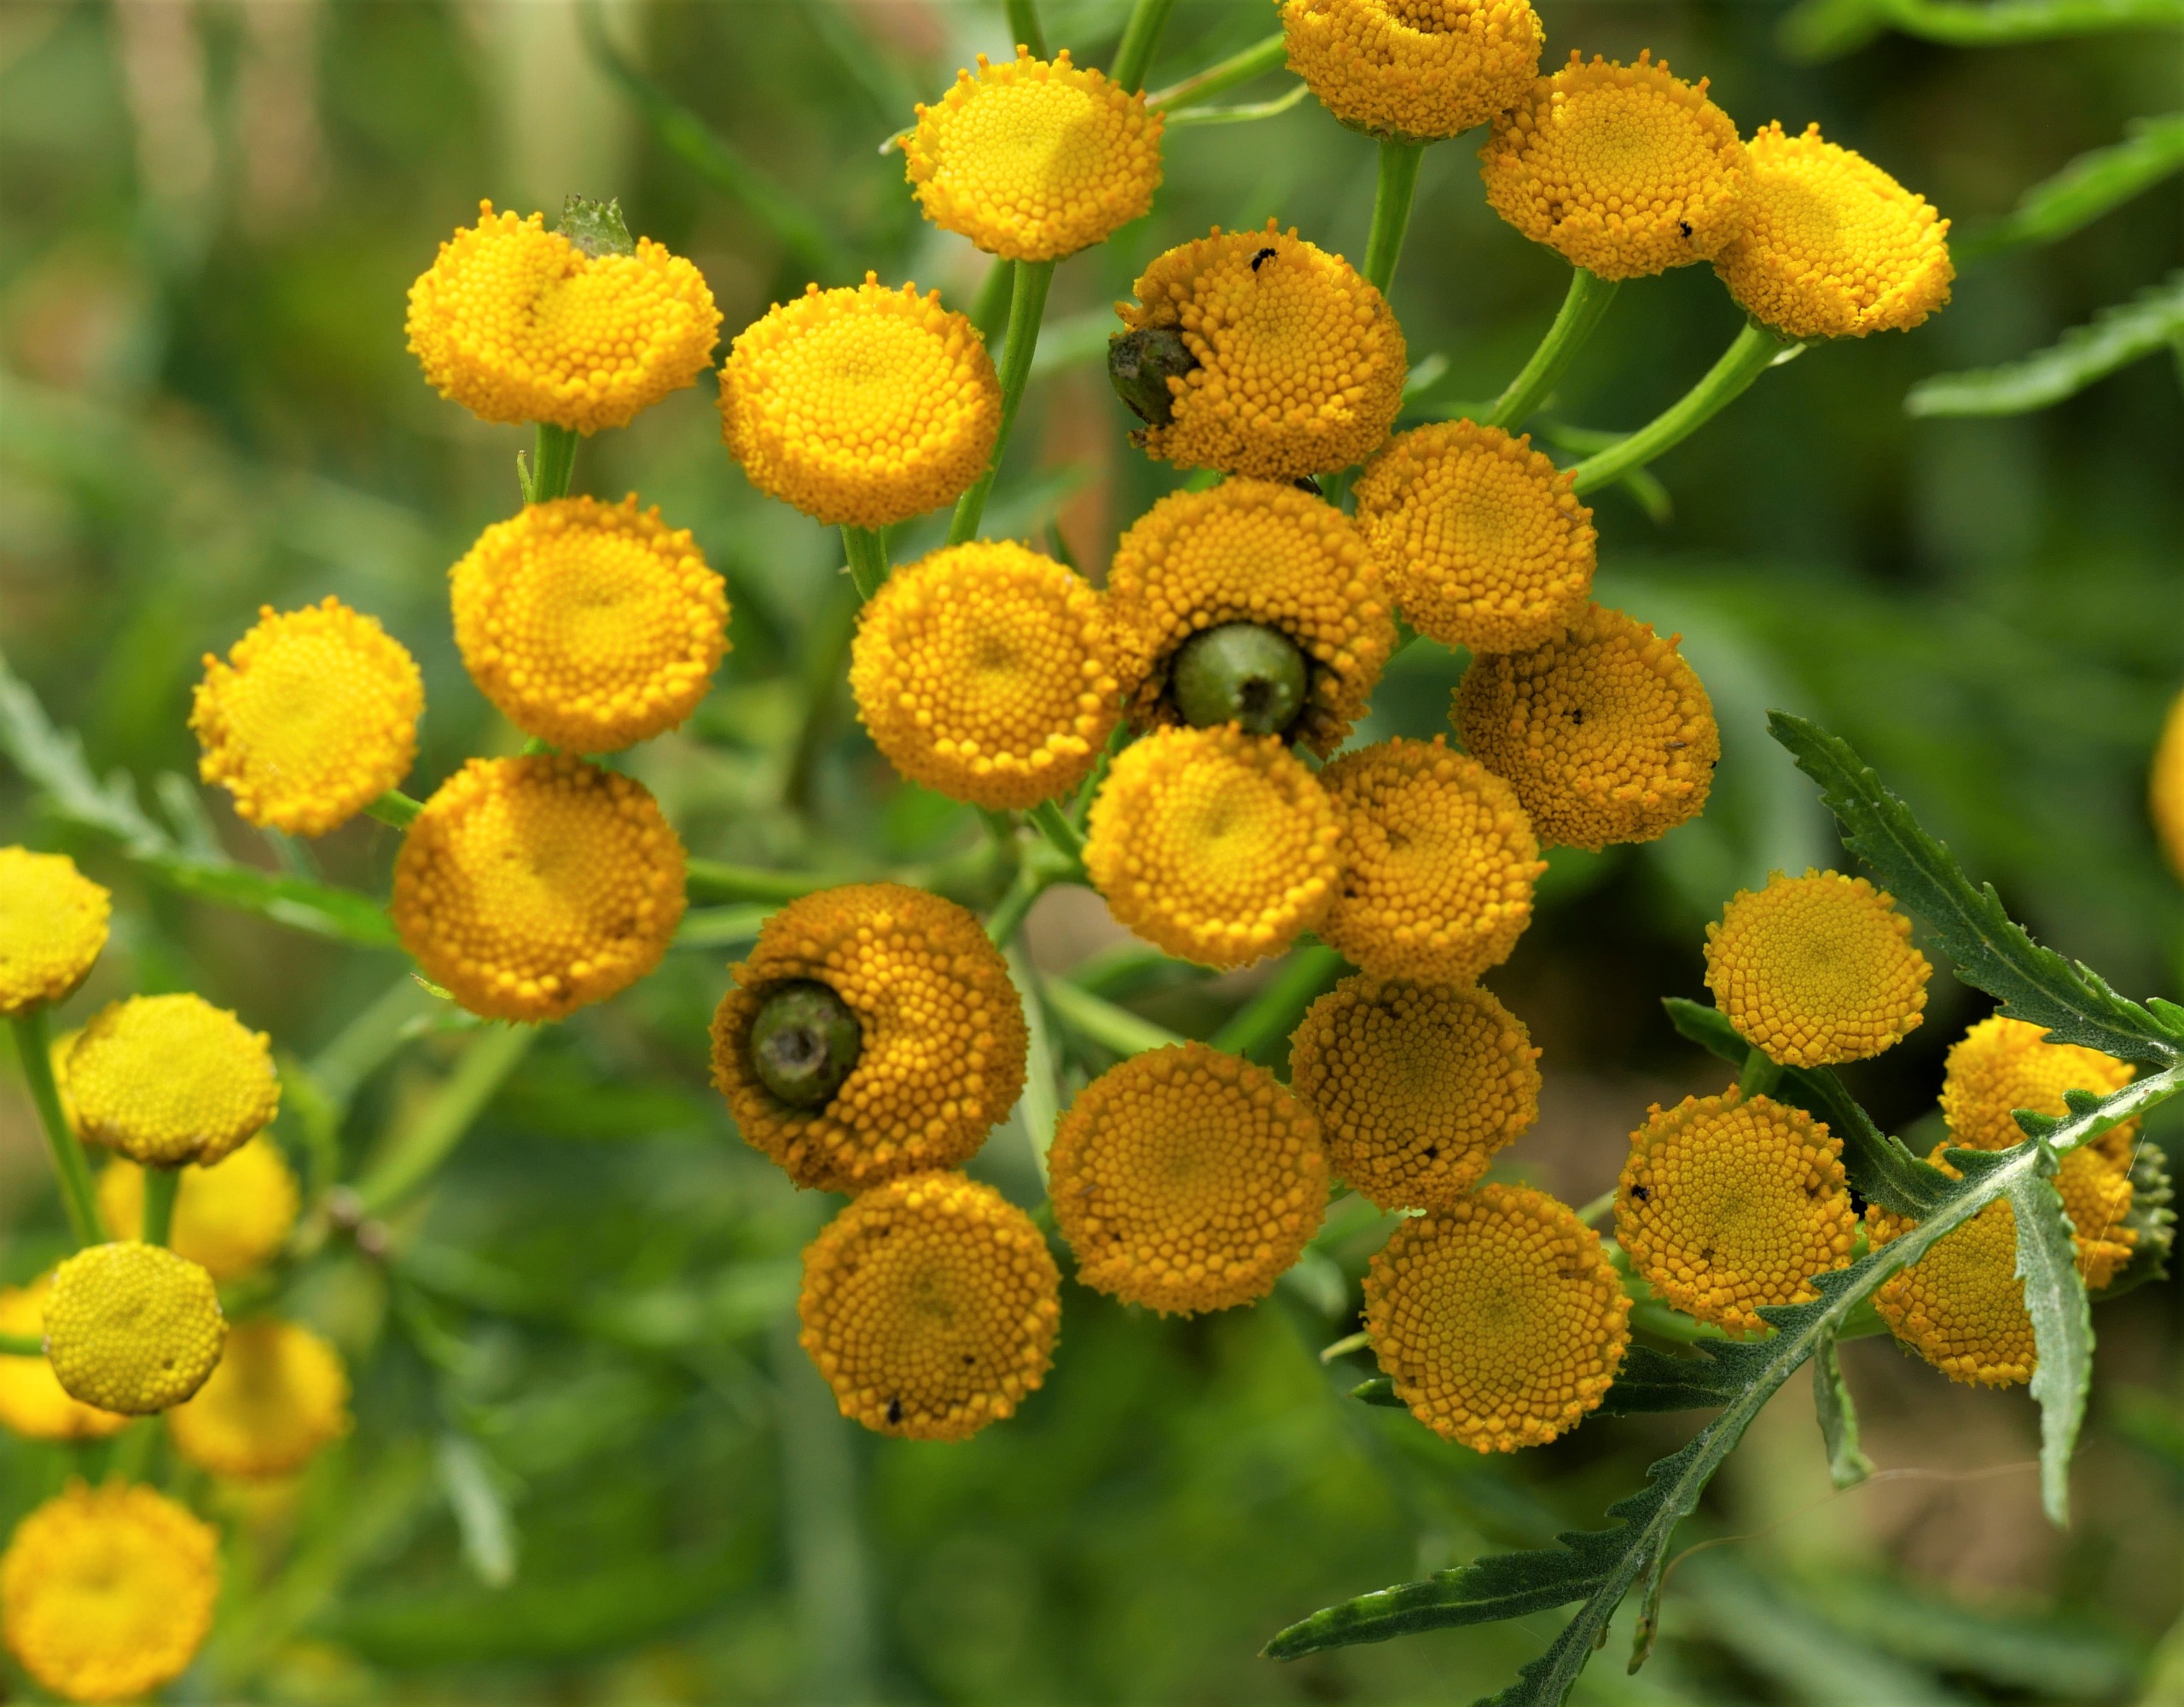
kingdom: Animalia
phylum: Arthropoda
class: Insecta
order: Diptera
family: Cecidomyiidae
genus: Rhopalomyia
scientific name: Rhopalomyia tanaceticolus
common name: Rejnfangalmyg
